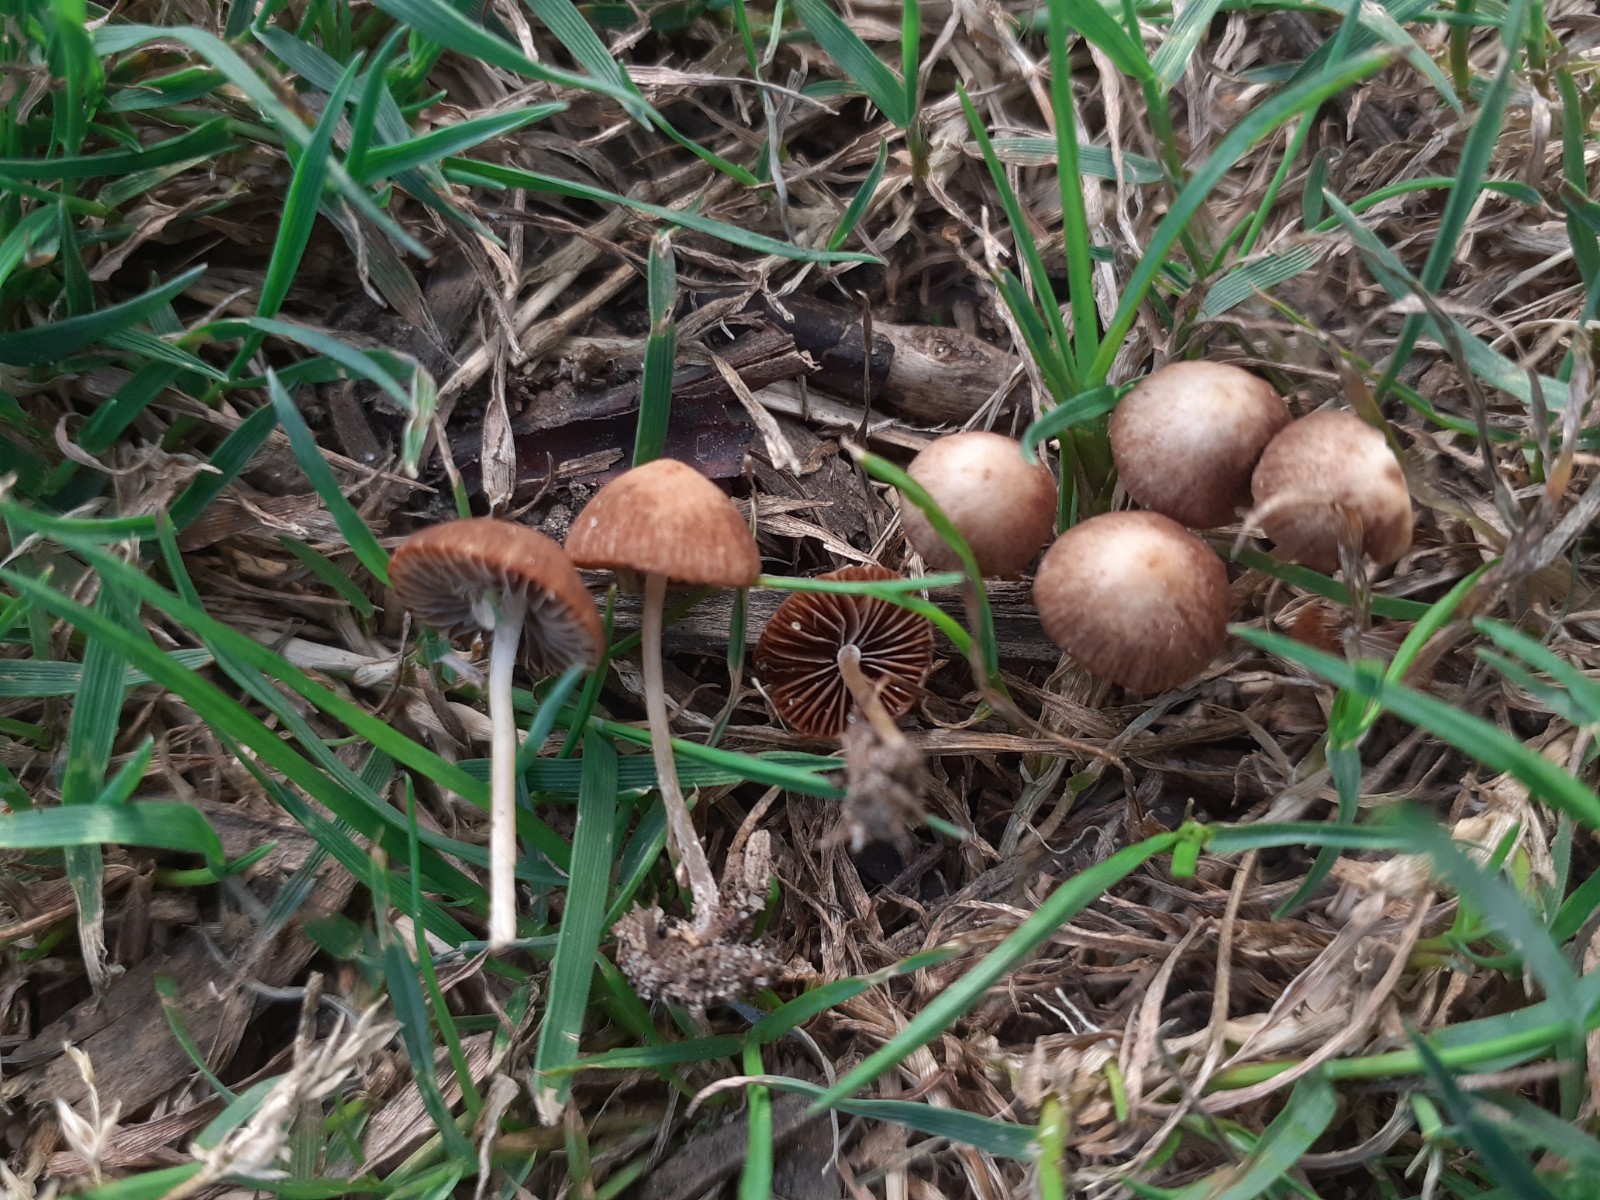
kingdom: Fungi
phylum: Basidiomycota
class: Agaricomycetes
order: Agaricales
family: Psathyrellaceae
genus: Psathyrella
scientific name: Psathyrella complutensis
